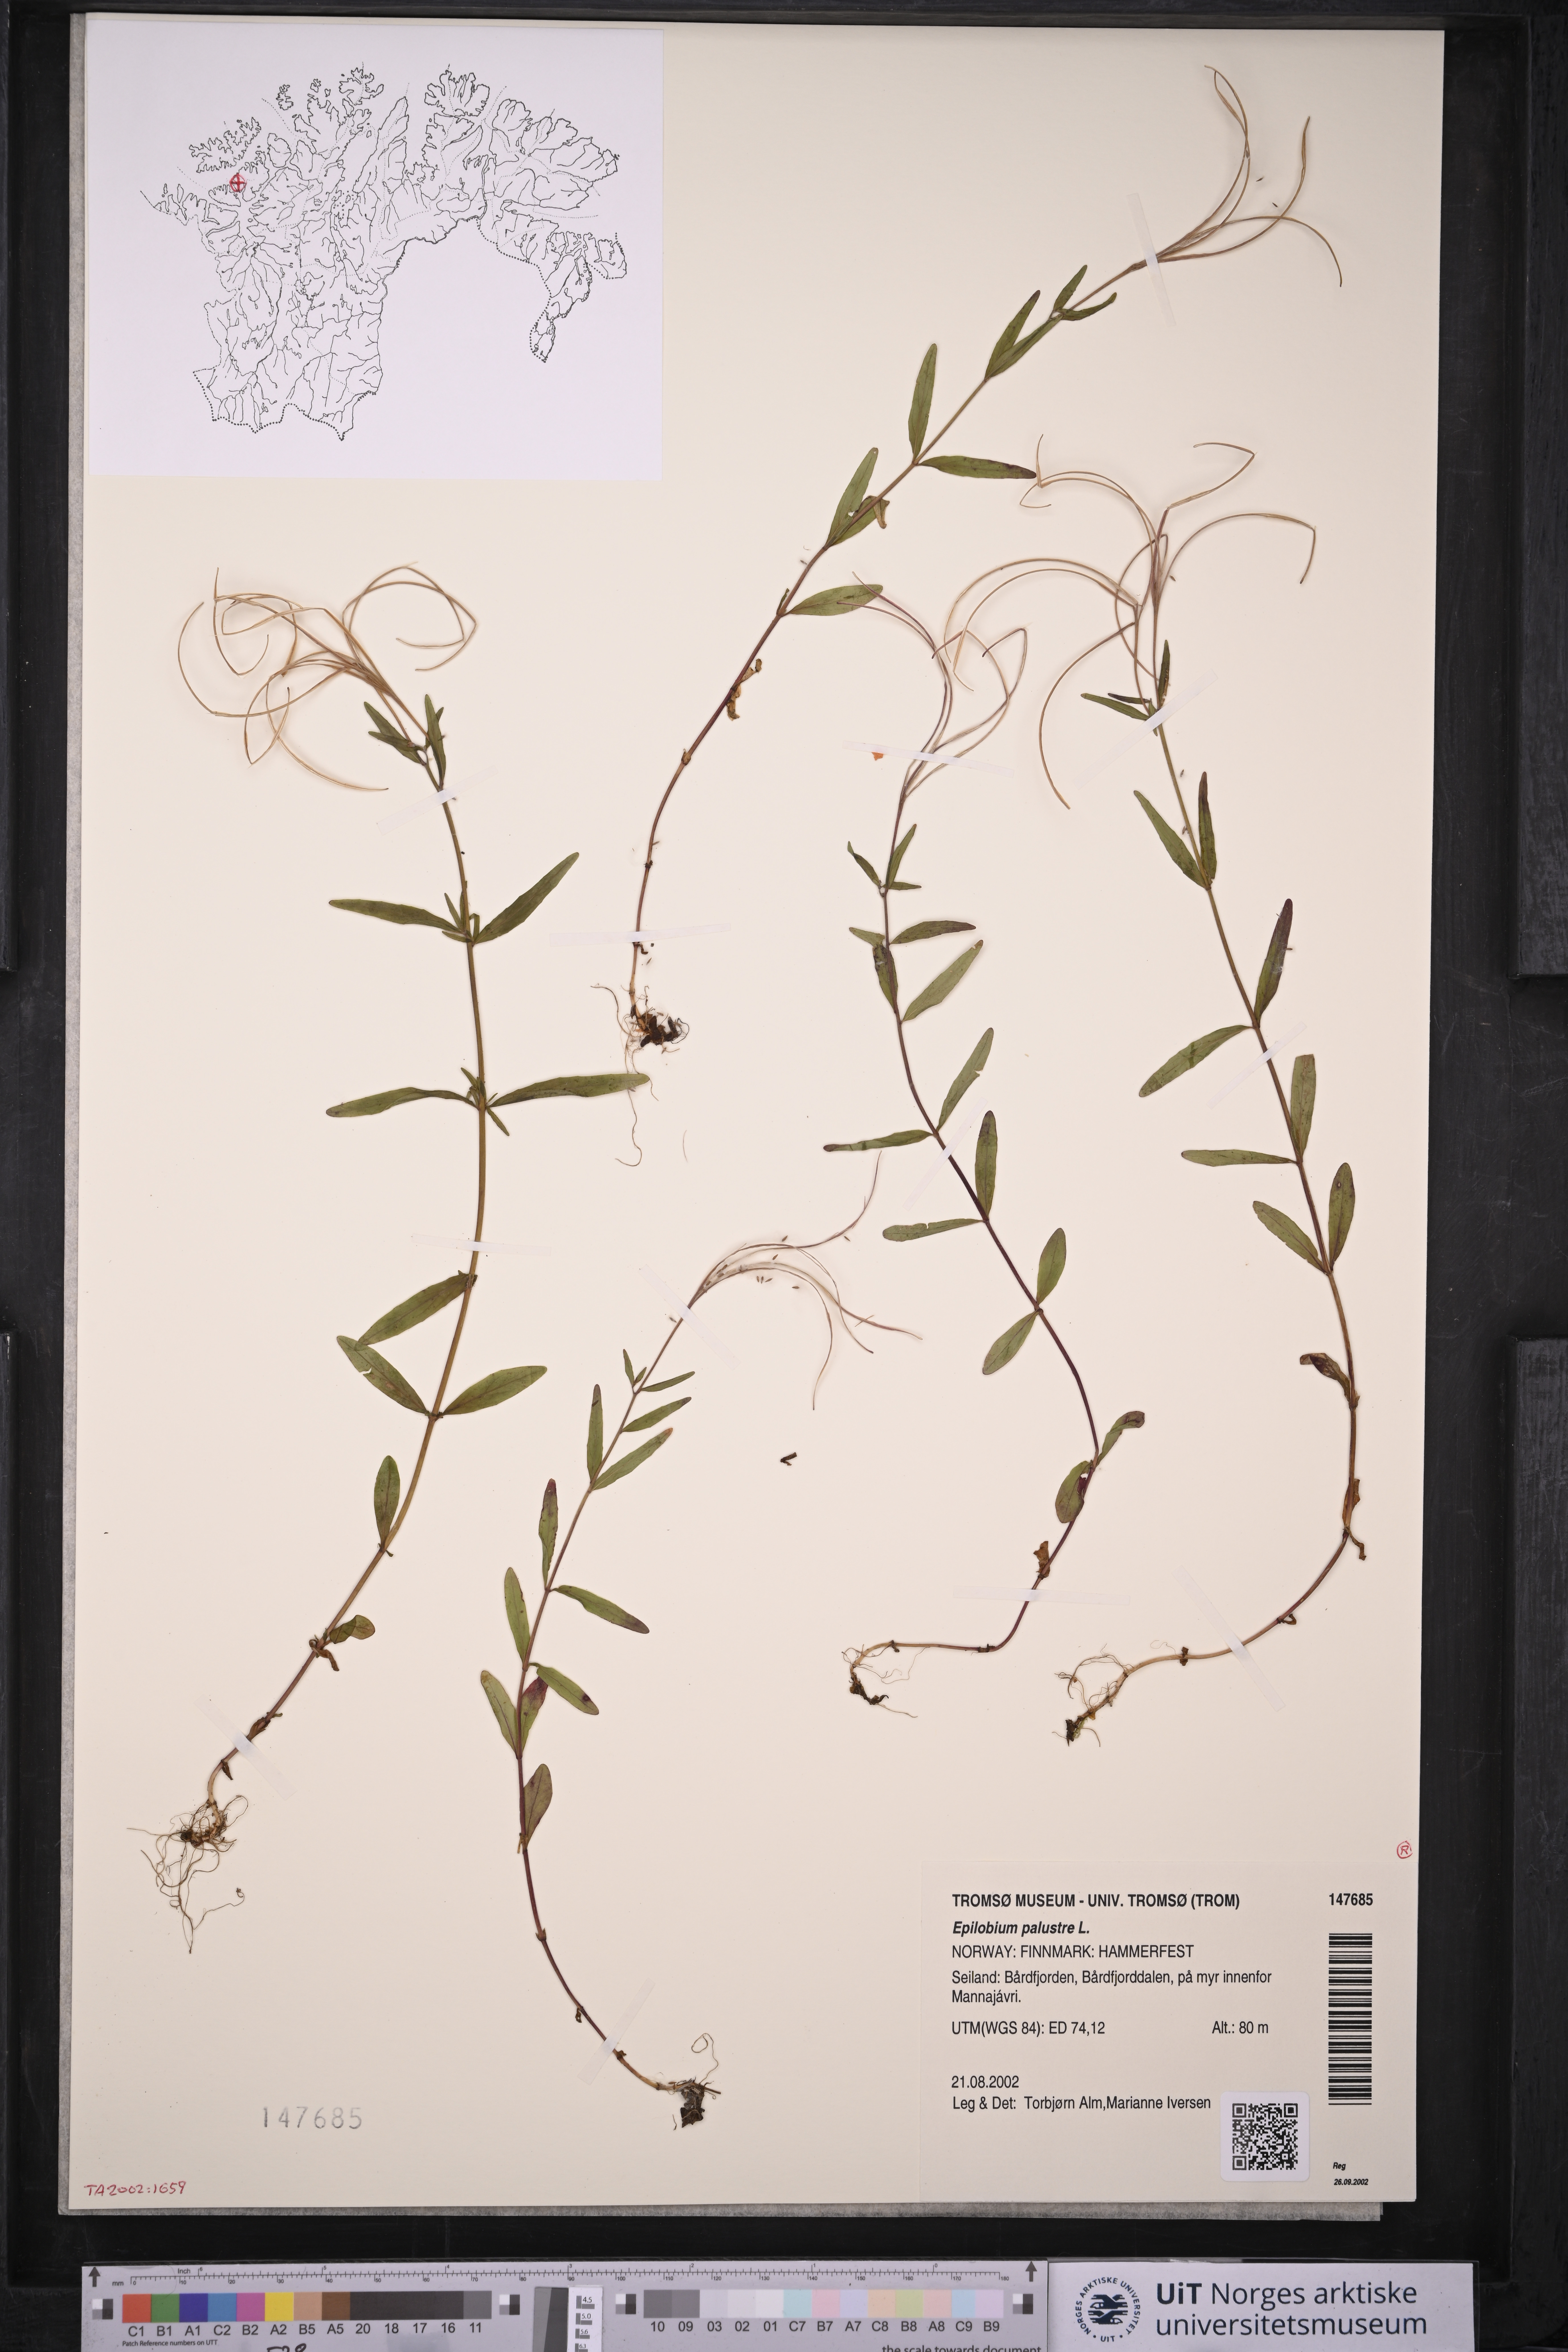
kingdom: Plantae
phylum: Tracheophyta
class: Magnoliopsida
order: Myrtales
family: Onagraceae
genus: Epilobium
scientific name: Epilobium palustre
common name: Marsh willowherb
